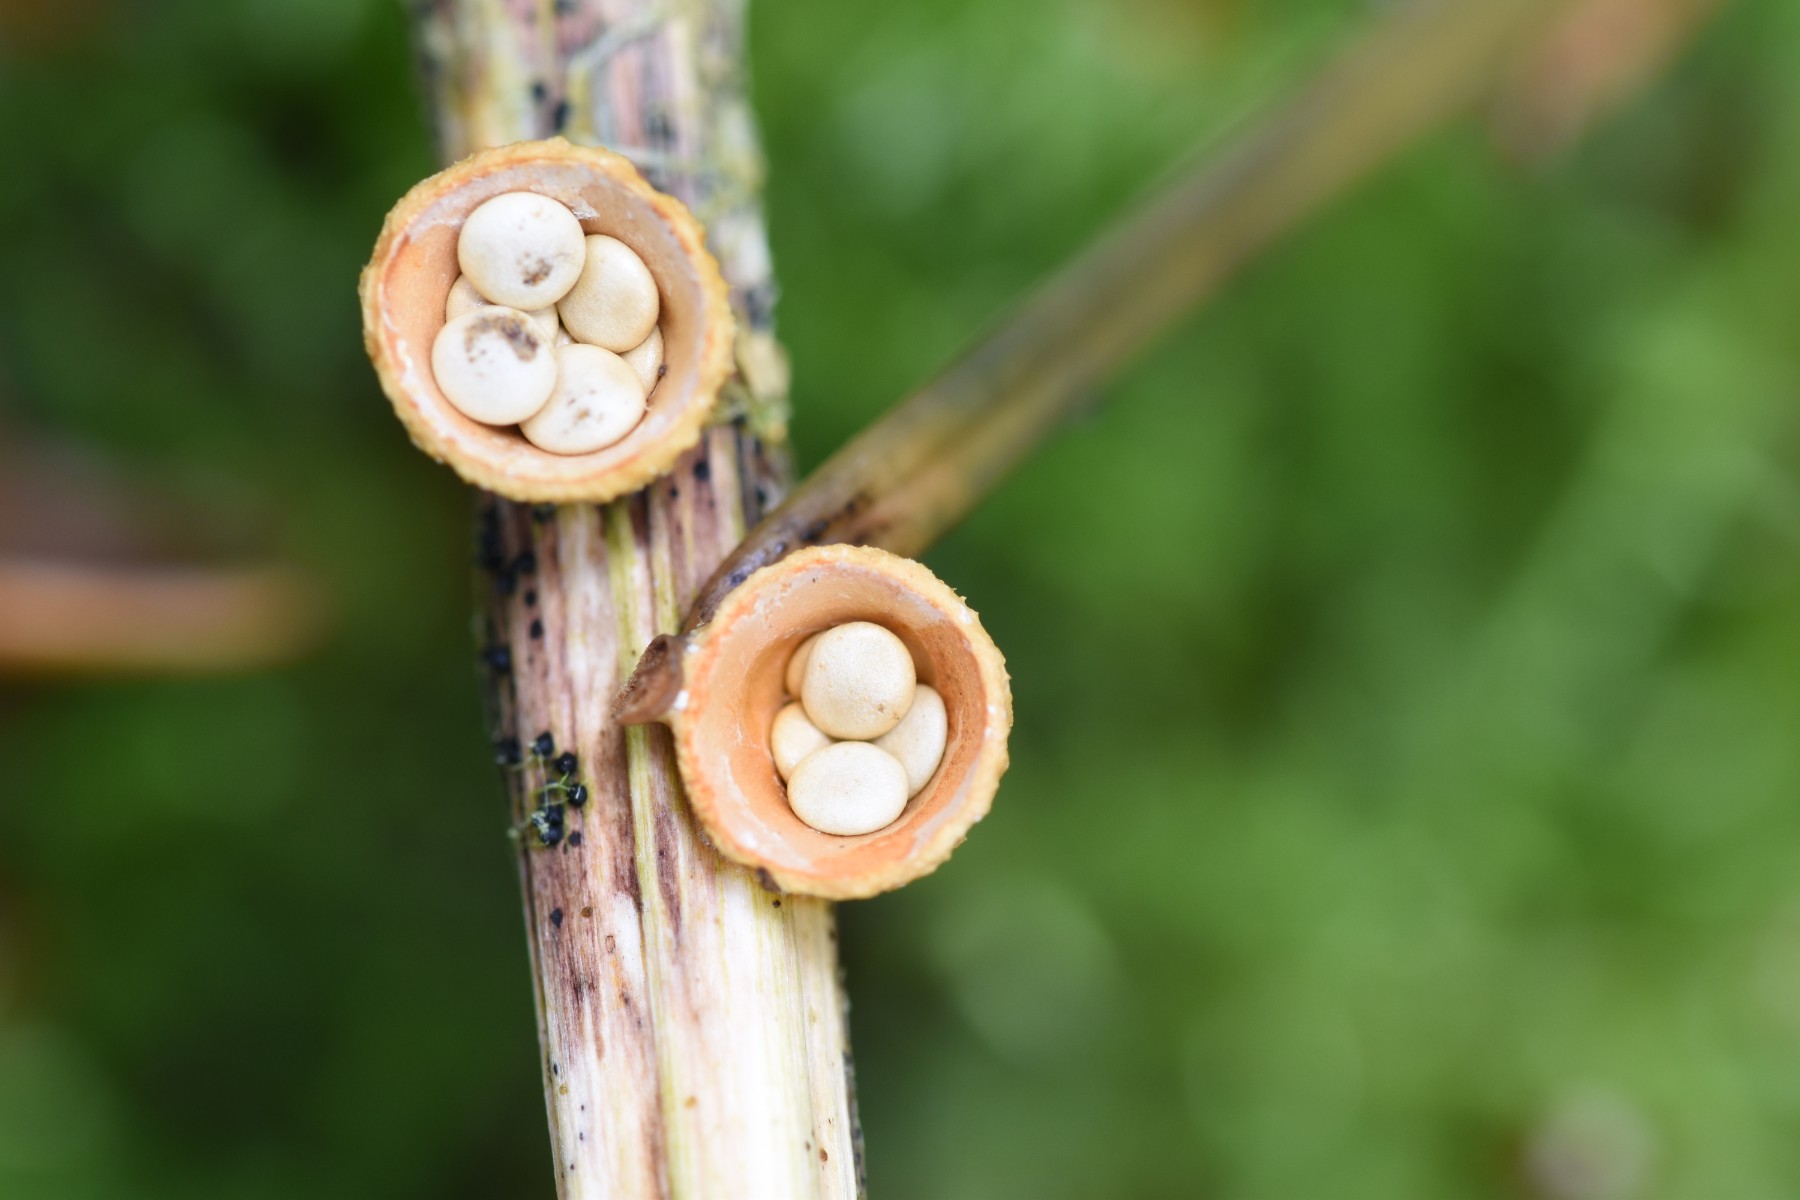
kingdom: Fungi
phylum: Basidiomycota
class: Agaricomycetes
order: Agaricales
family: Nidulariaceae
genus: Crucibulum
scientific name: Crucibulum crucibuliforme
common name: krukkesvamp
